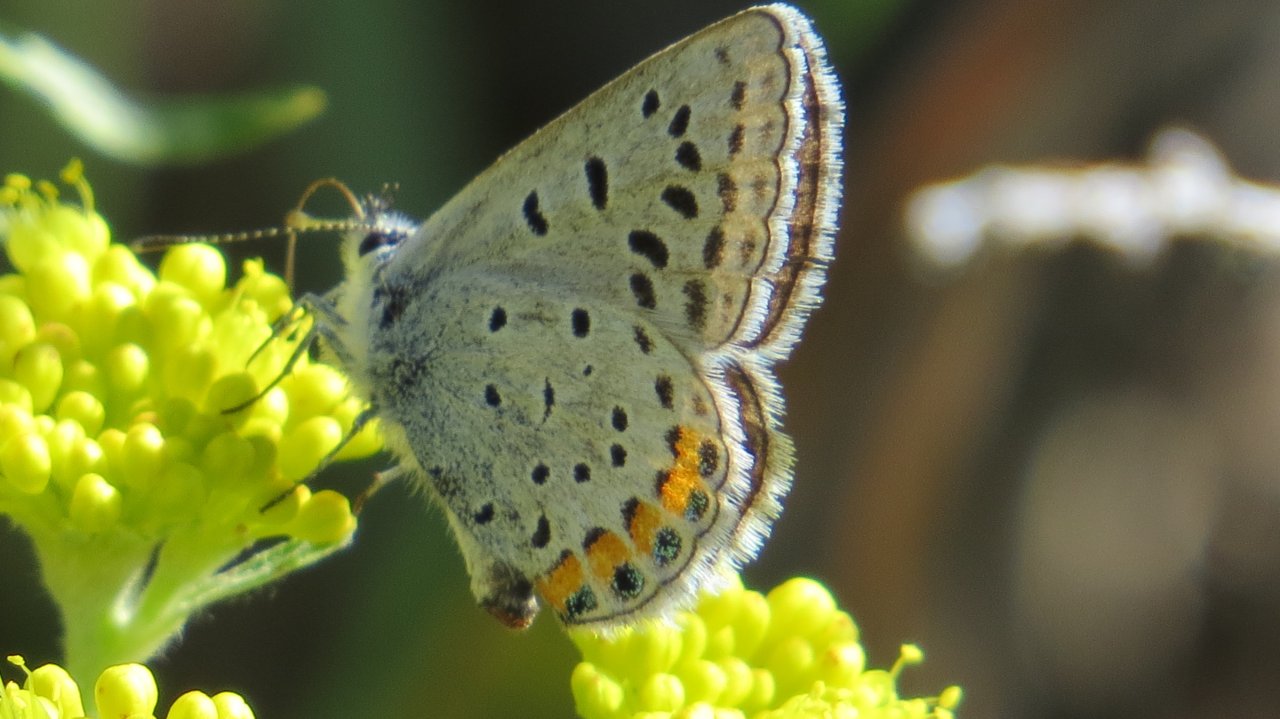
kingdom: Animalia
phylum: Arthropoda
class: Insecta
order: Lepidoptera
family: Lycaenidae
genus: Plebejus
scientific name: Plebejus acmon
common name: Acmon Blue
